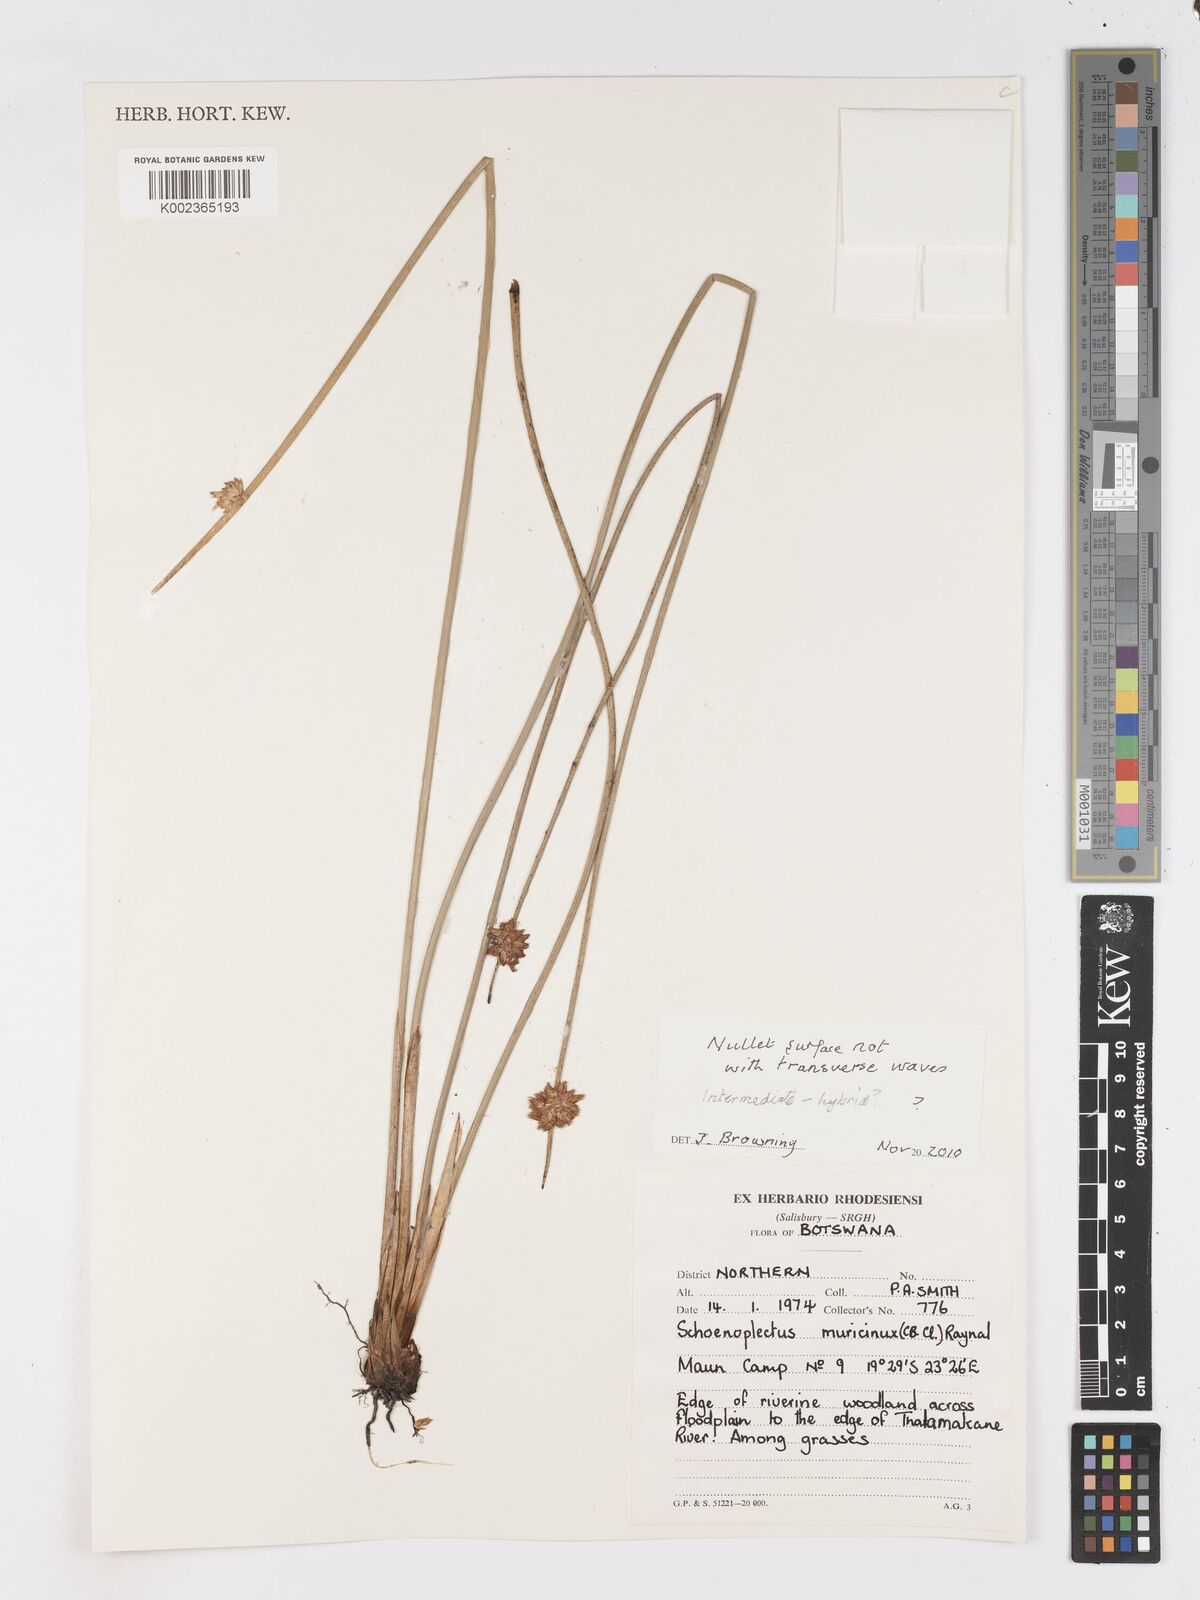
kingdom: Plantae
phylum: Tracheophyta
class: Liliopsida
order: Poales
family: Cyperaceae
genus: Schoenoplectiella
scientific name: Schoenoplectiella muricinux
